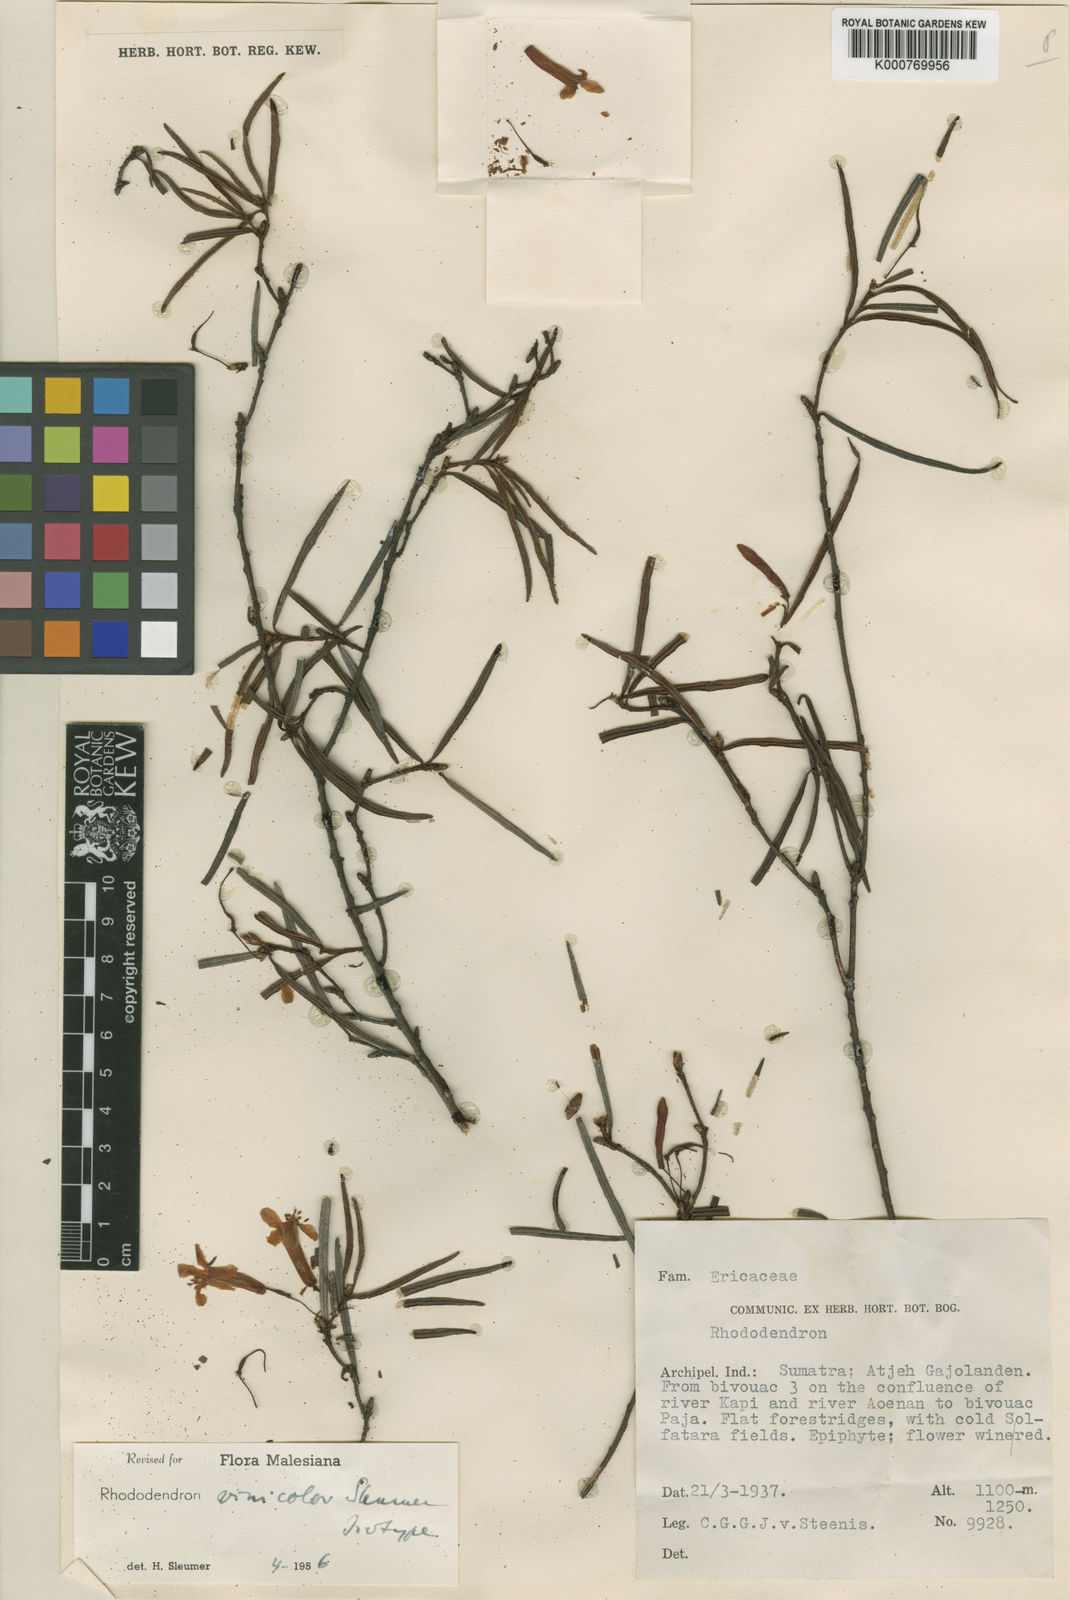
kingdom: Plantae
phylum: Tracheophyta
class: Magnoliopsida
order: Ericales
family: Ericaceae
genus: Rhododendron
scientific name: Rhododendron vinicolor
